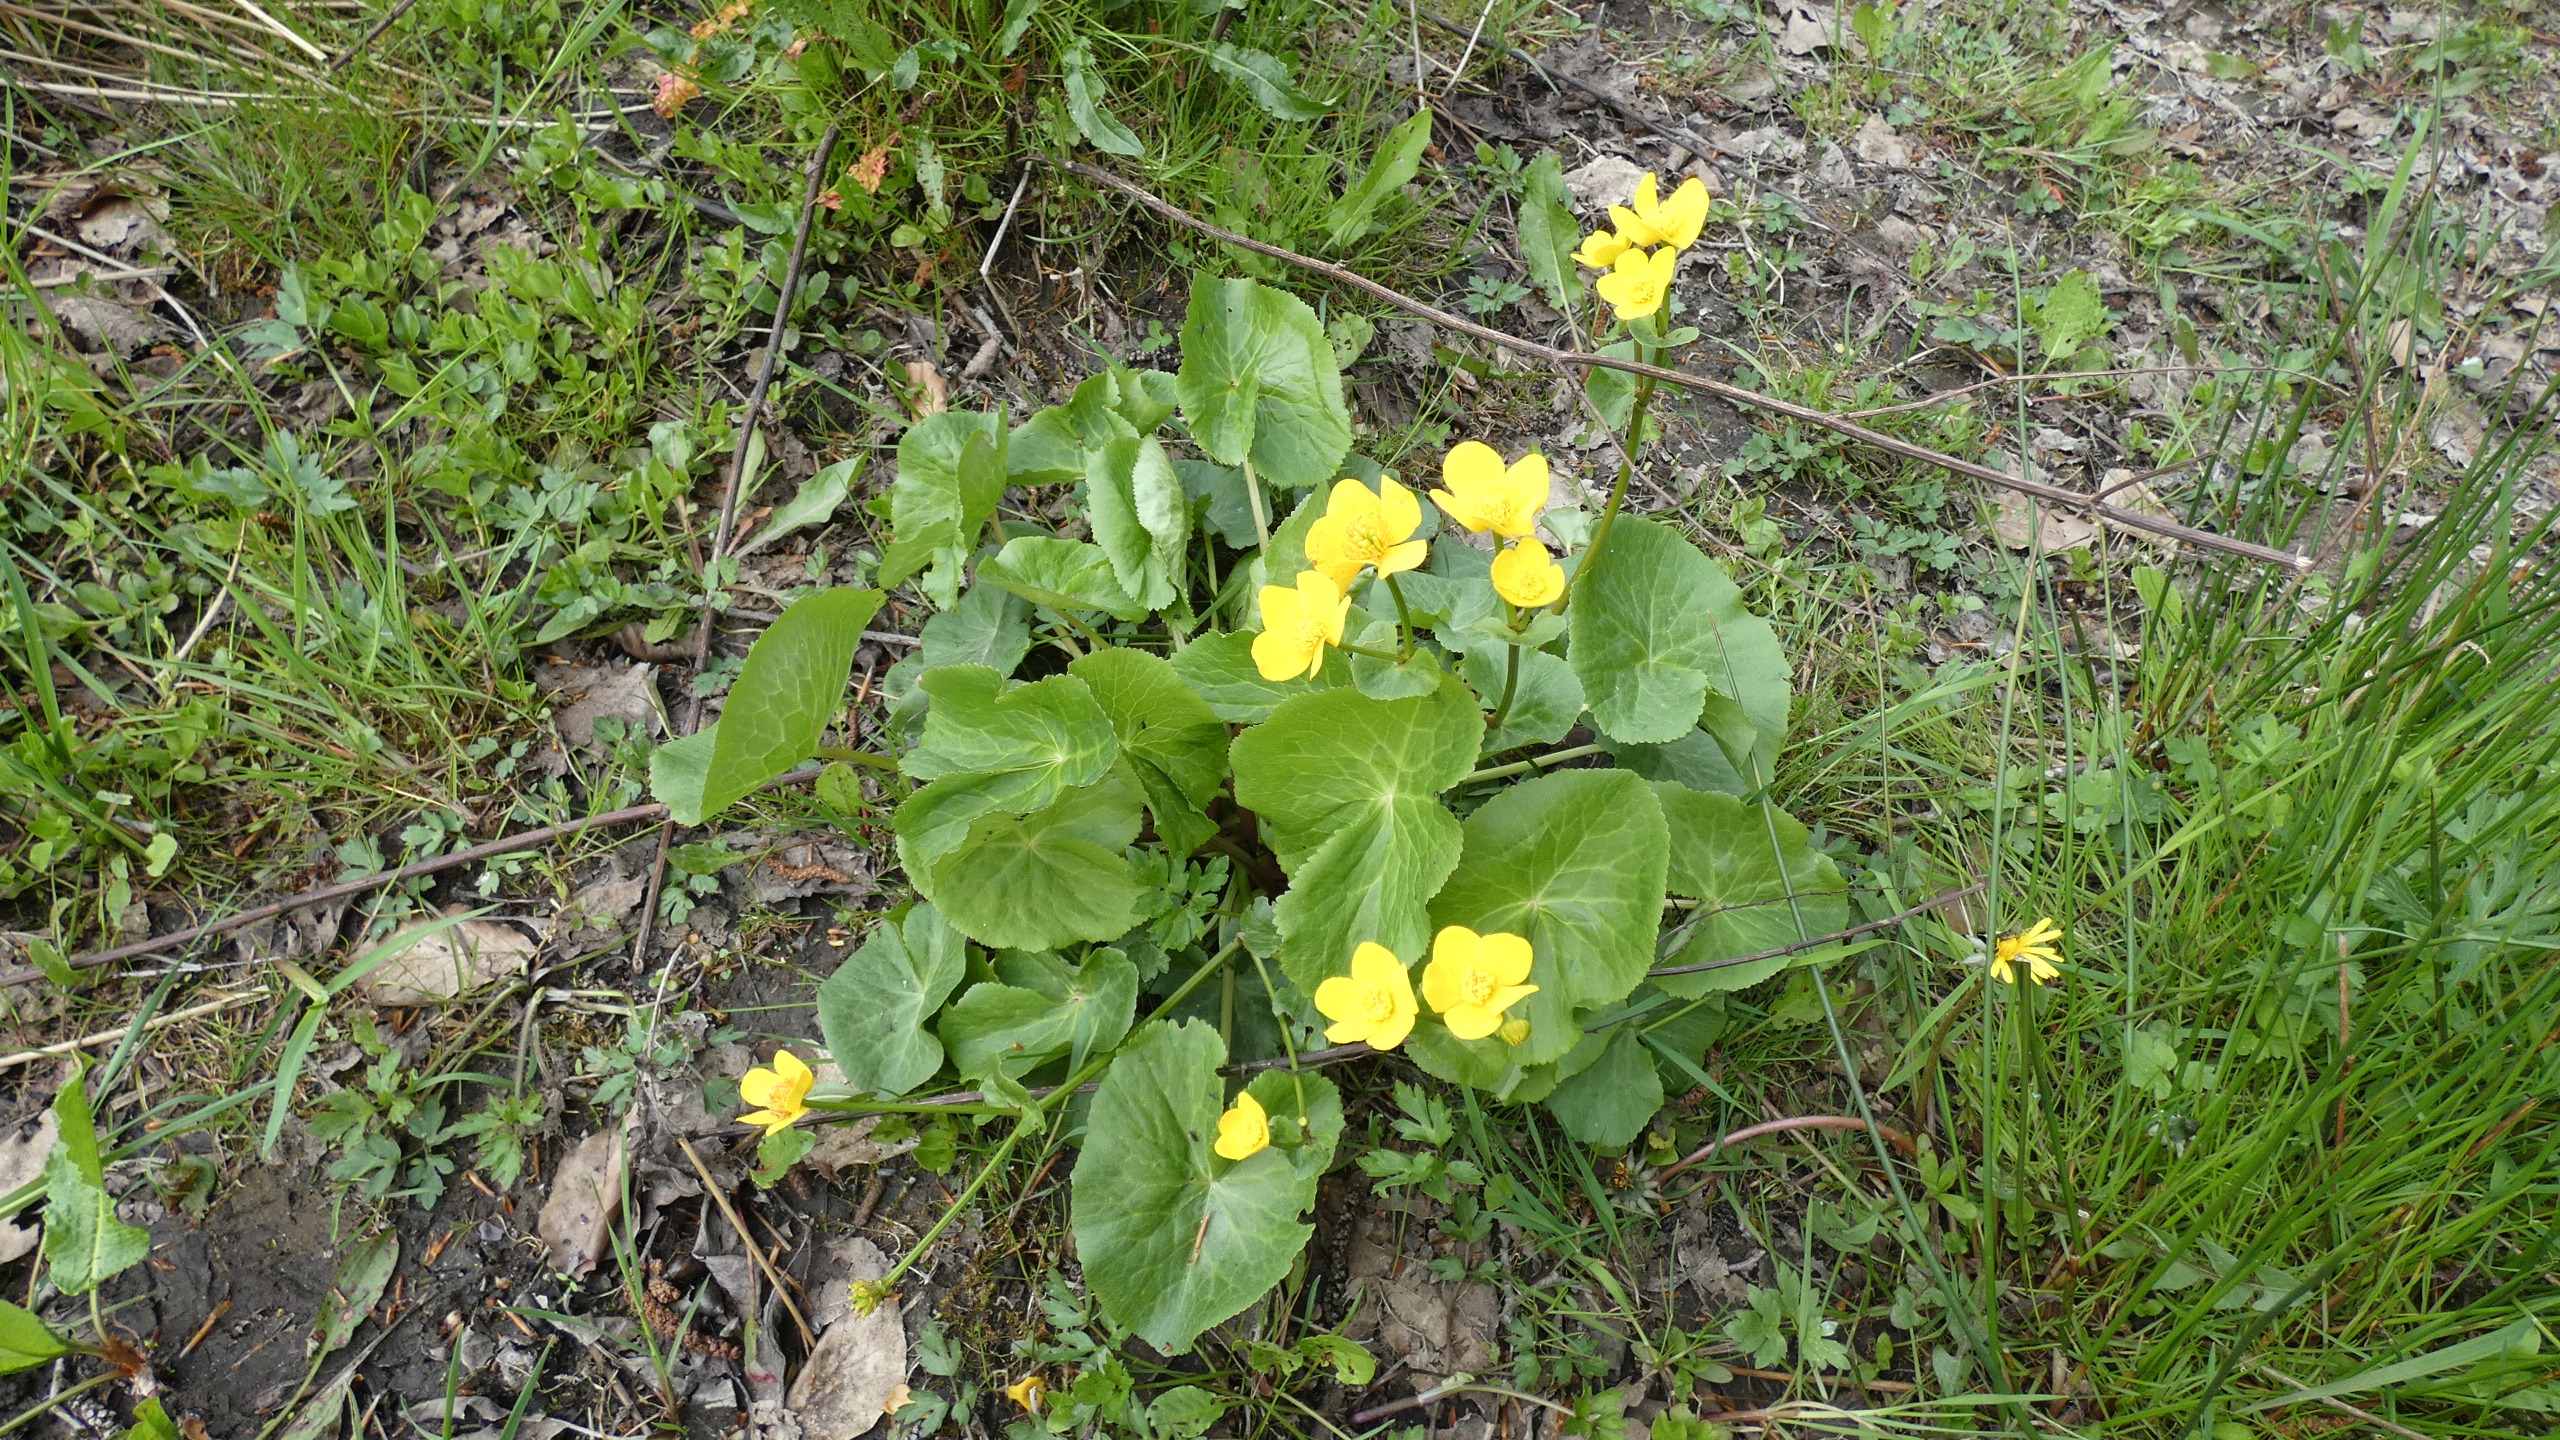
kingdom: Plantae
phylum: Tracheophyta
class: Magnoliopsida
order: Ranunculales
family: Ranunculaceae
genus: Caltha
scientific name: Caltha palustris
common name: Eng-kabbeleje
